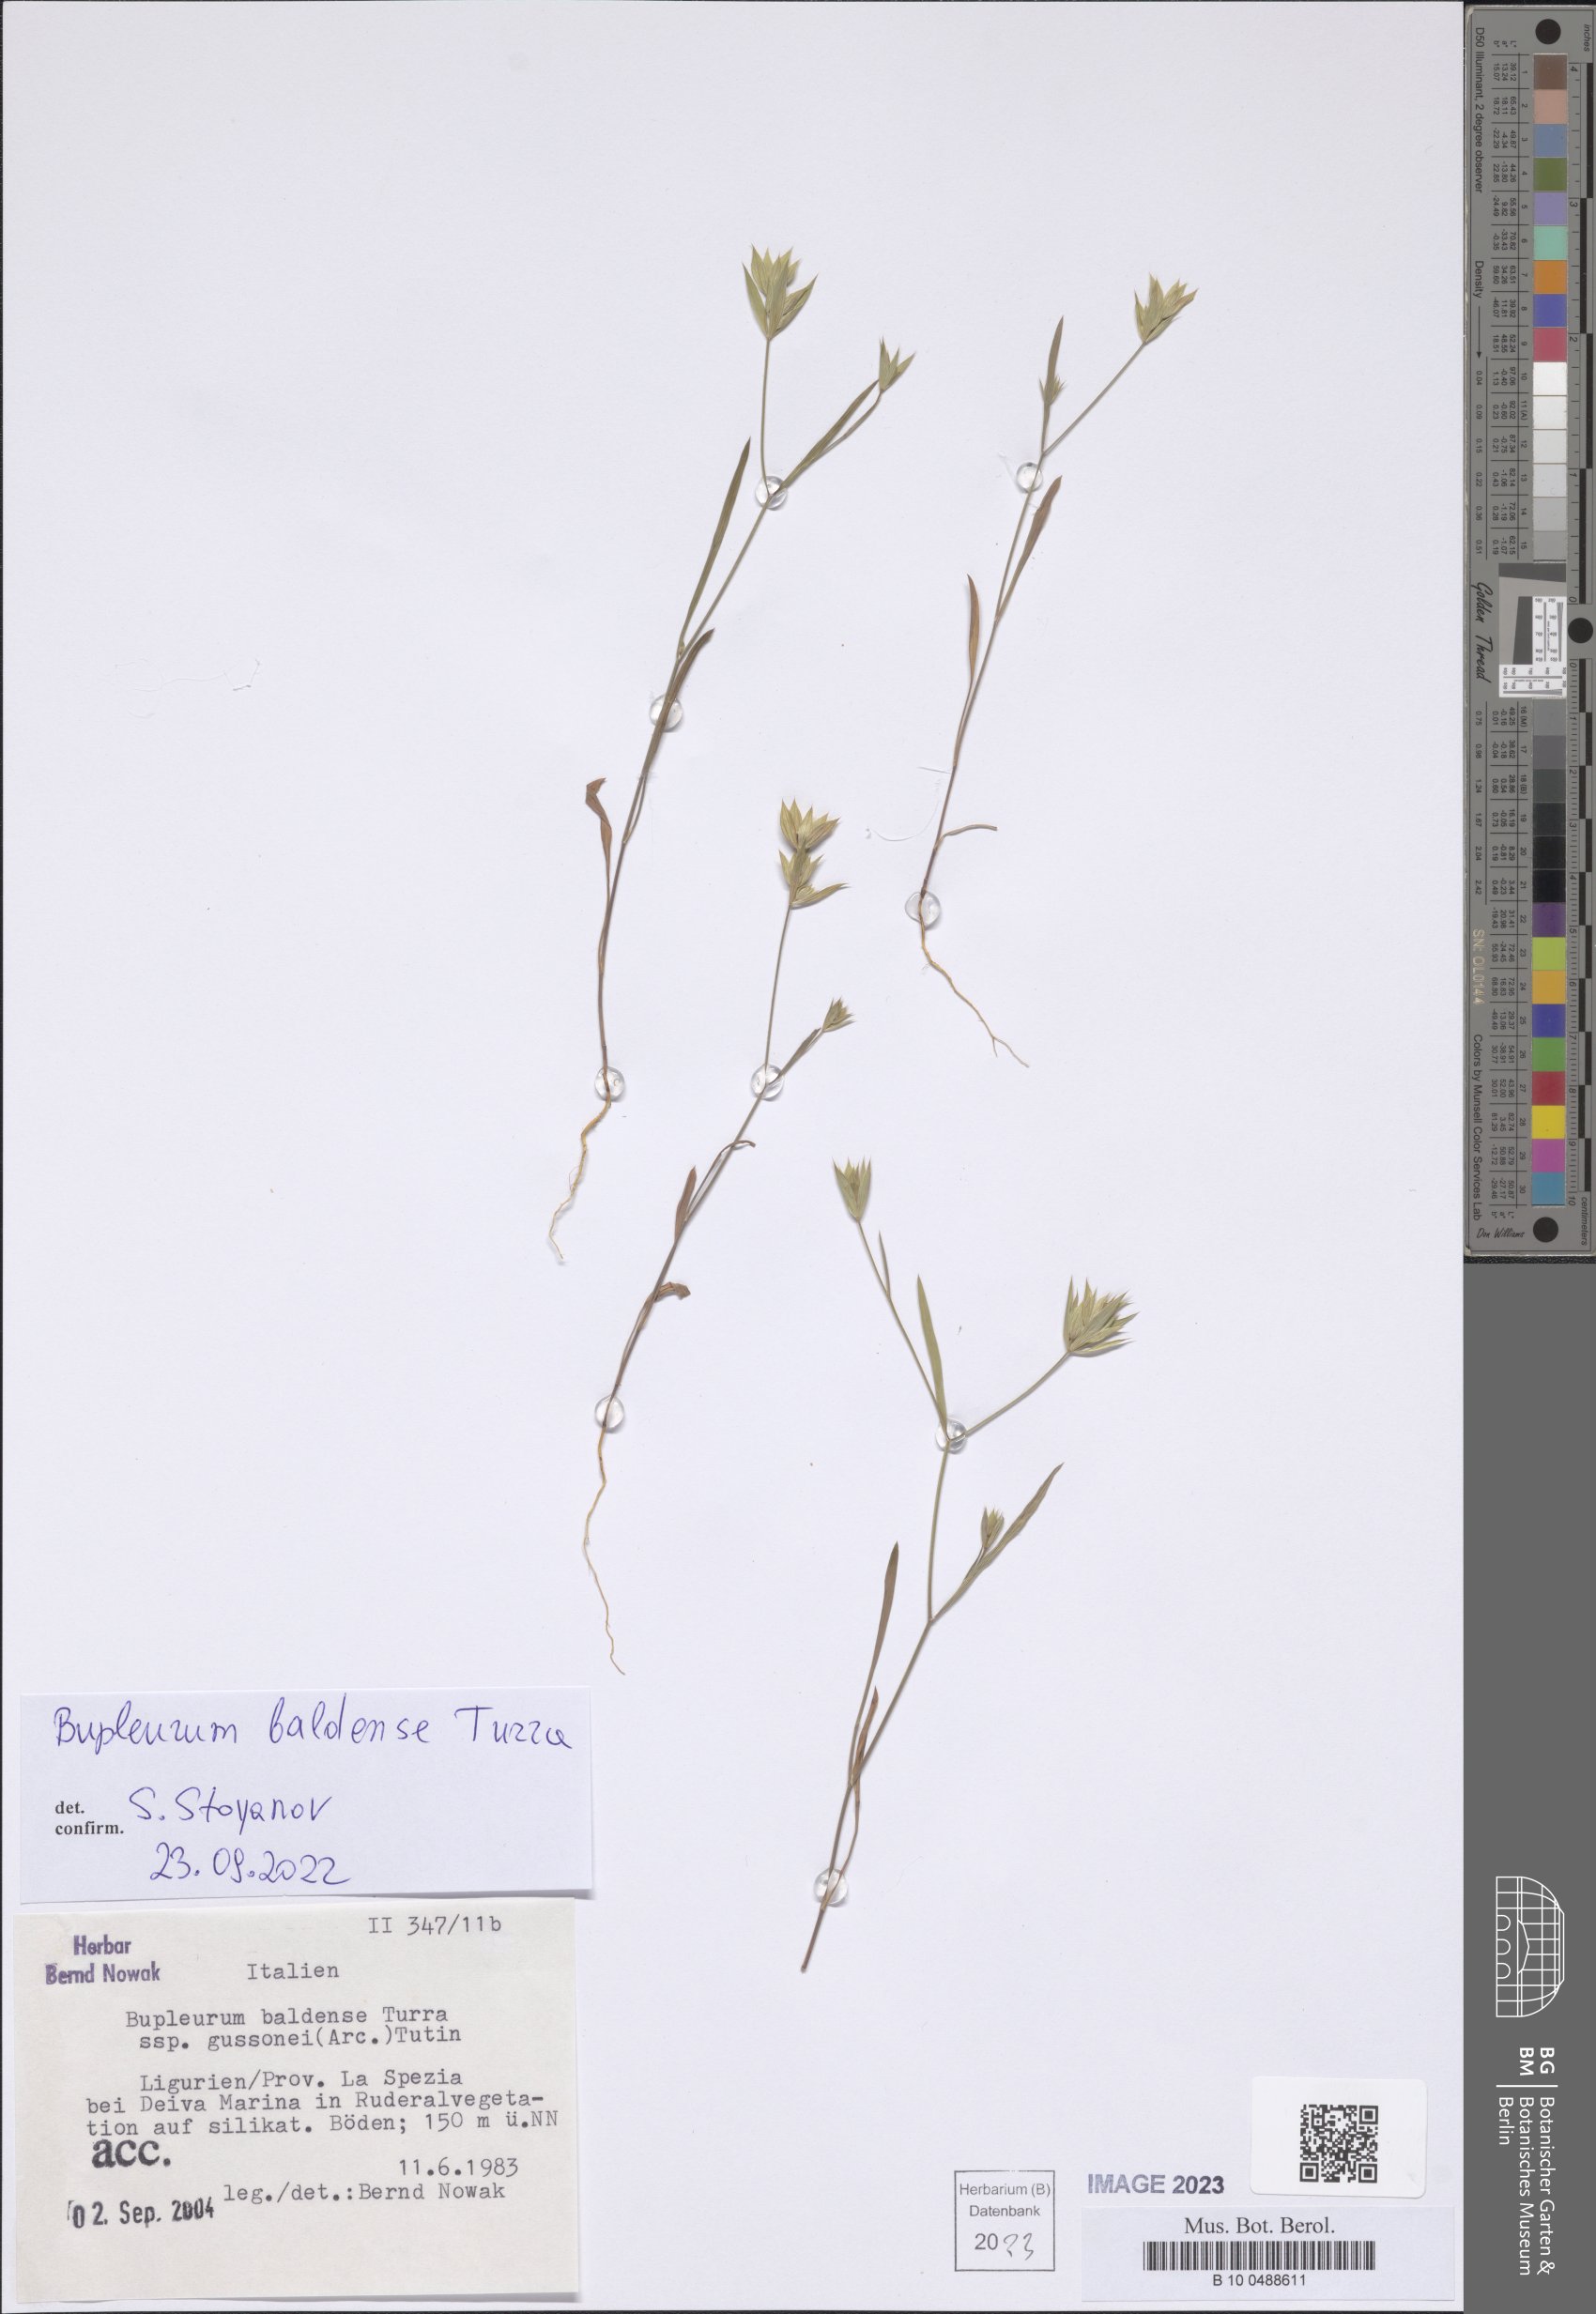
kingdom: Plantae
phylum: Tracheophyta
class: Magnoliopsida
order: Apiales
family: Apiaceae
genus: Bupleurum
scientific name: Bupleurum baldense
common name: Small hare's-ear
